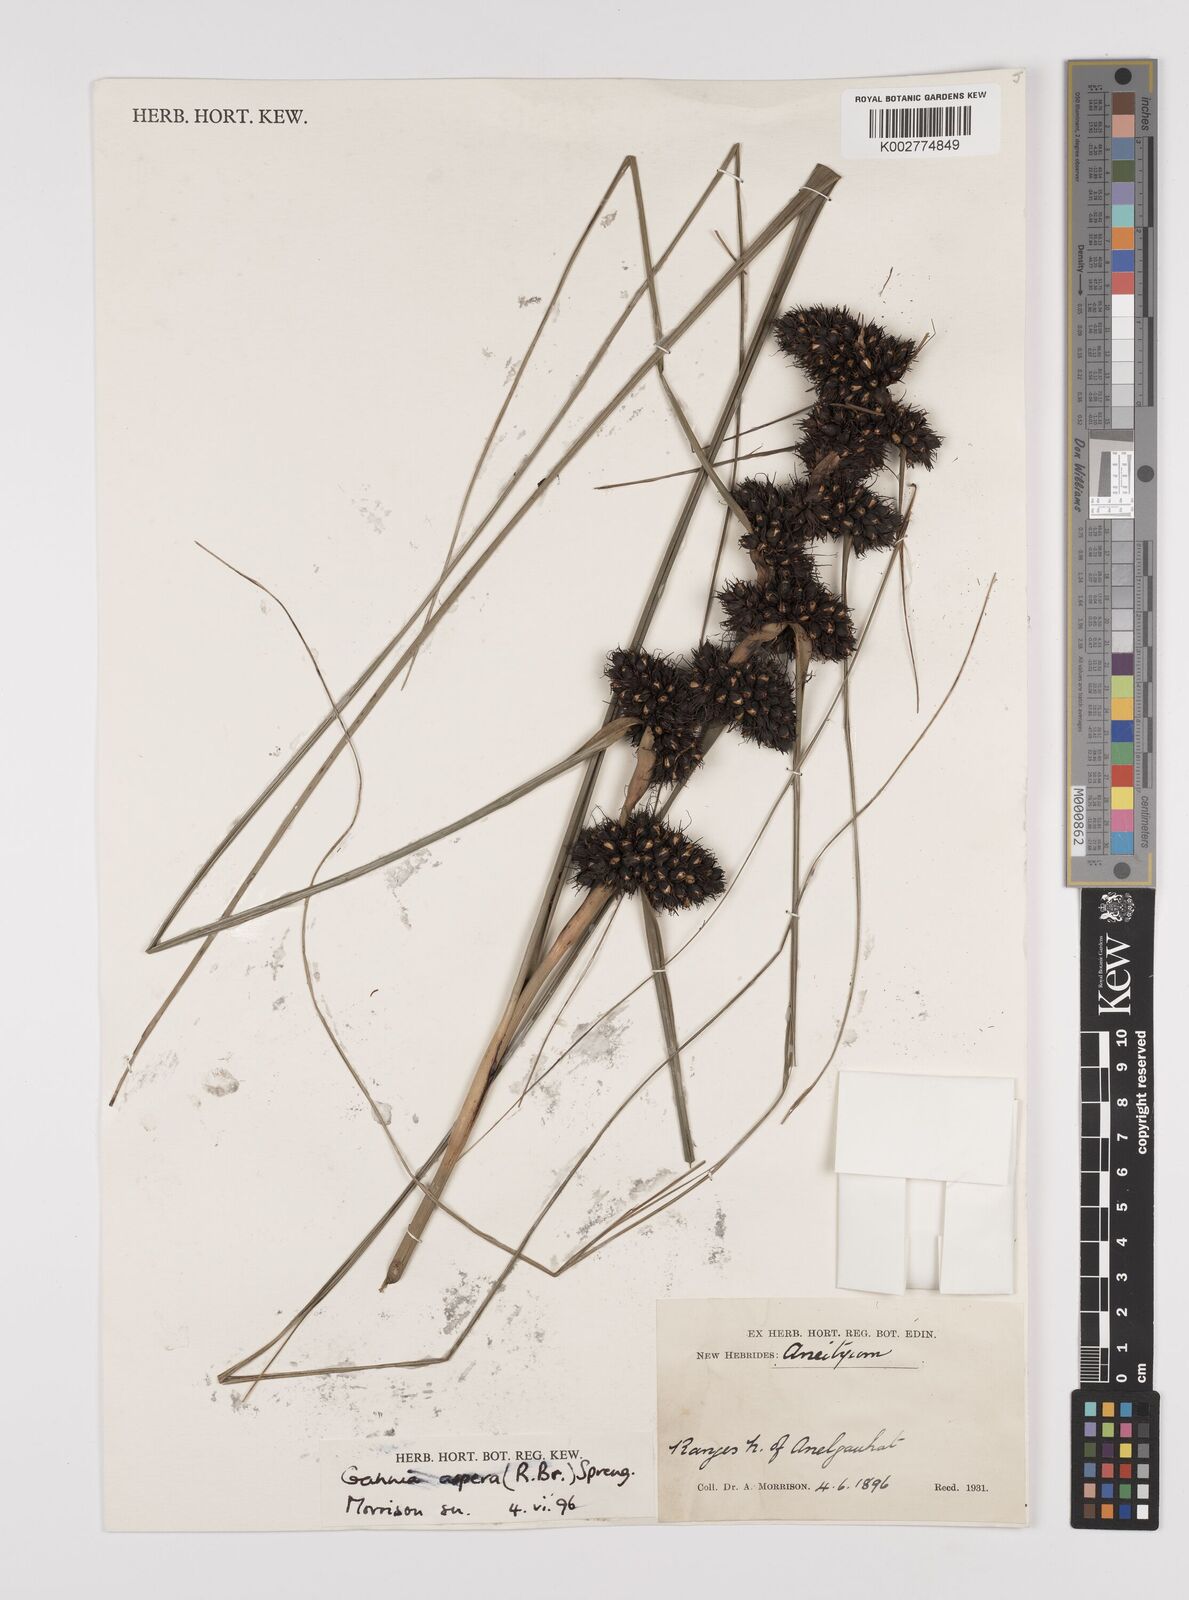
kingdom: Plantae
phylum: Tracheophyta
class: Liliopsida
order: Poales
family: Cyperaceae
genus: Gahnia
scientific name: Gahnia aspera
